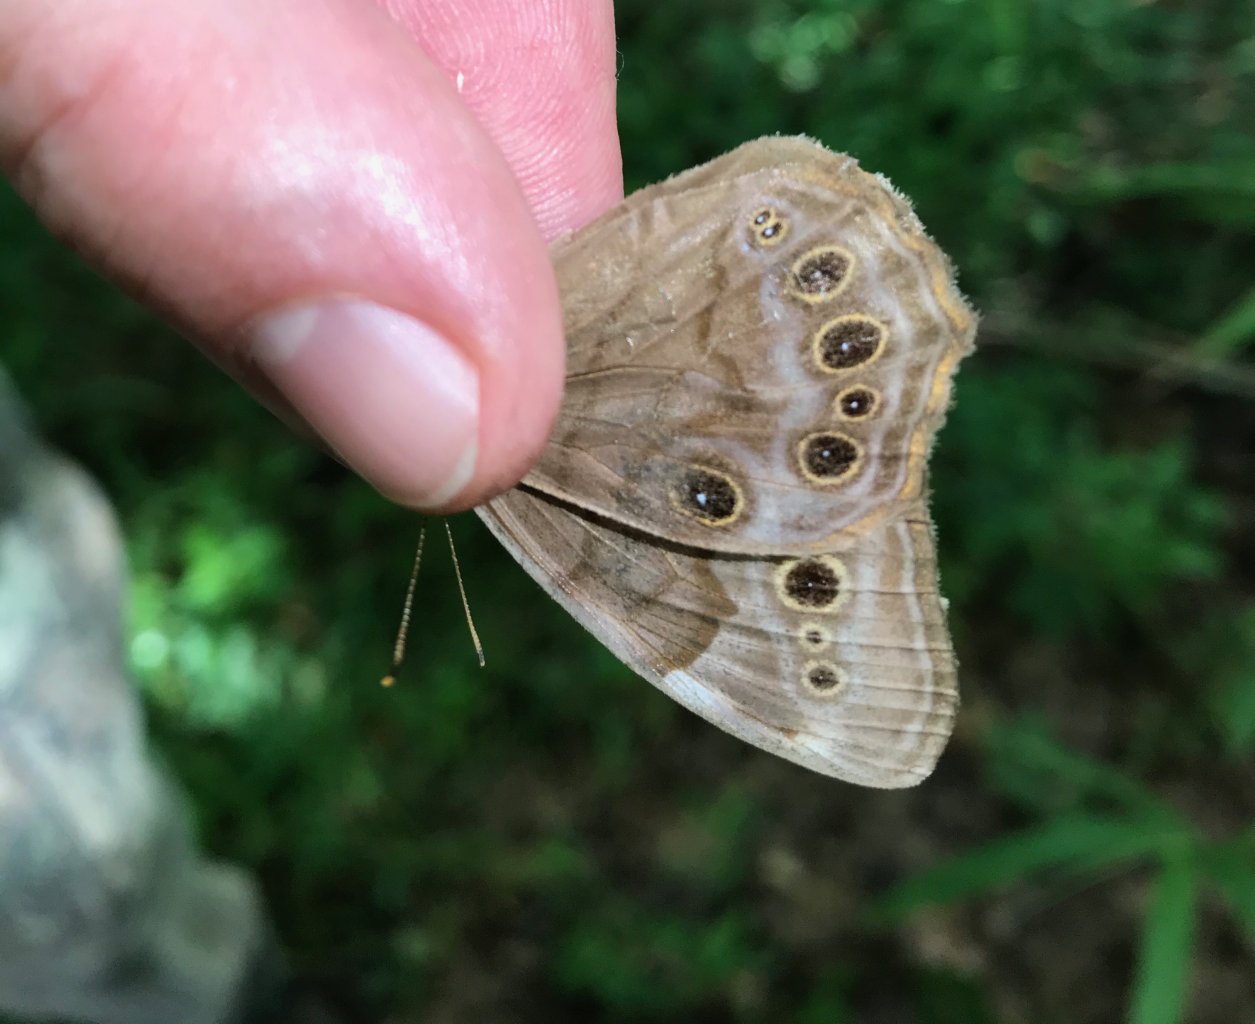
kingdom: Animalia
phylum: Arthropoda
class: Insecta
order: Lepidoptera
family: Nymphalidae
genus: Lethe
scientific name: Lethe anthedon
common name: Northern Pearly-Eye
